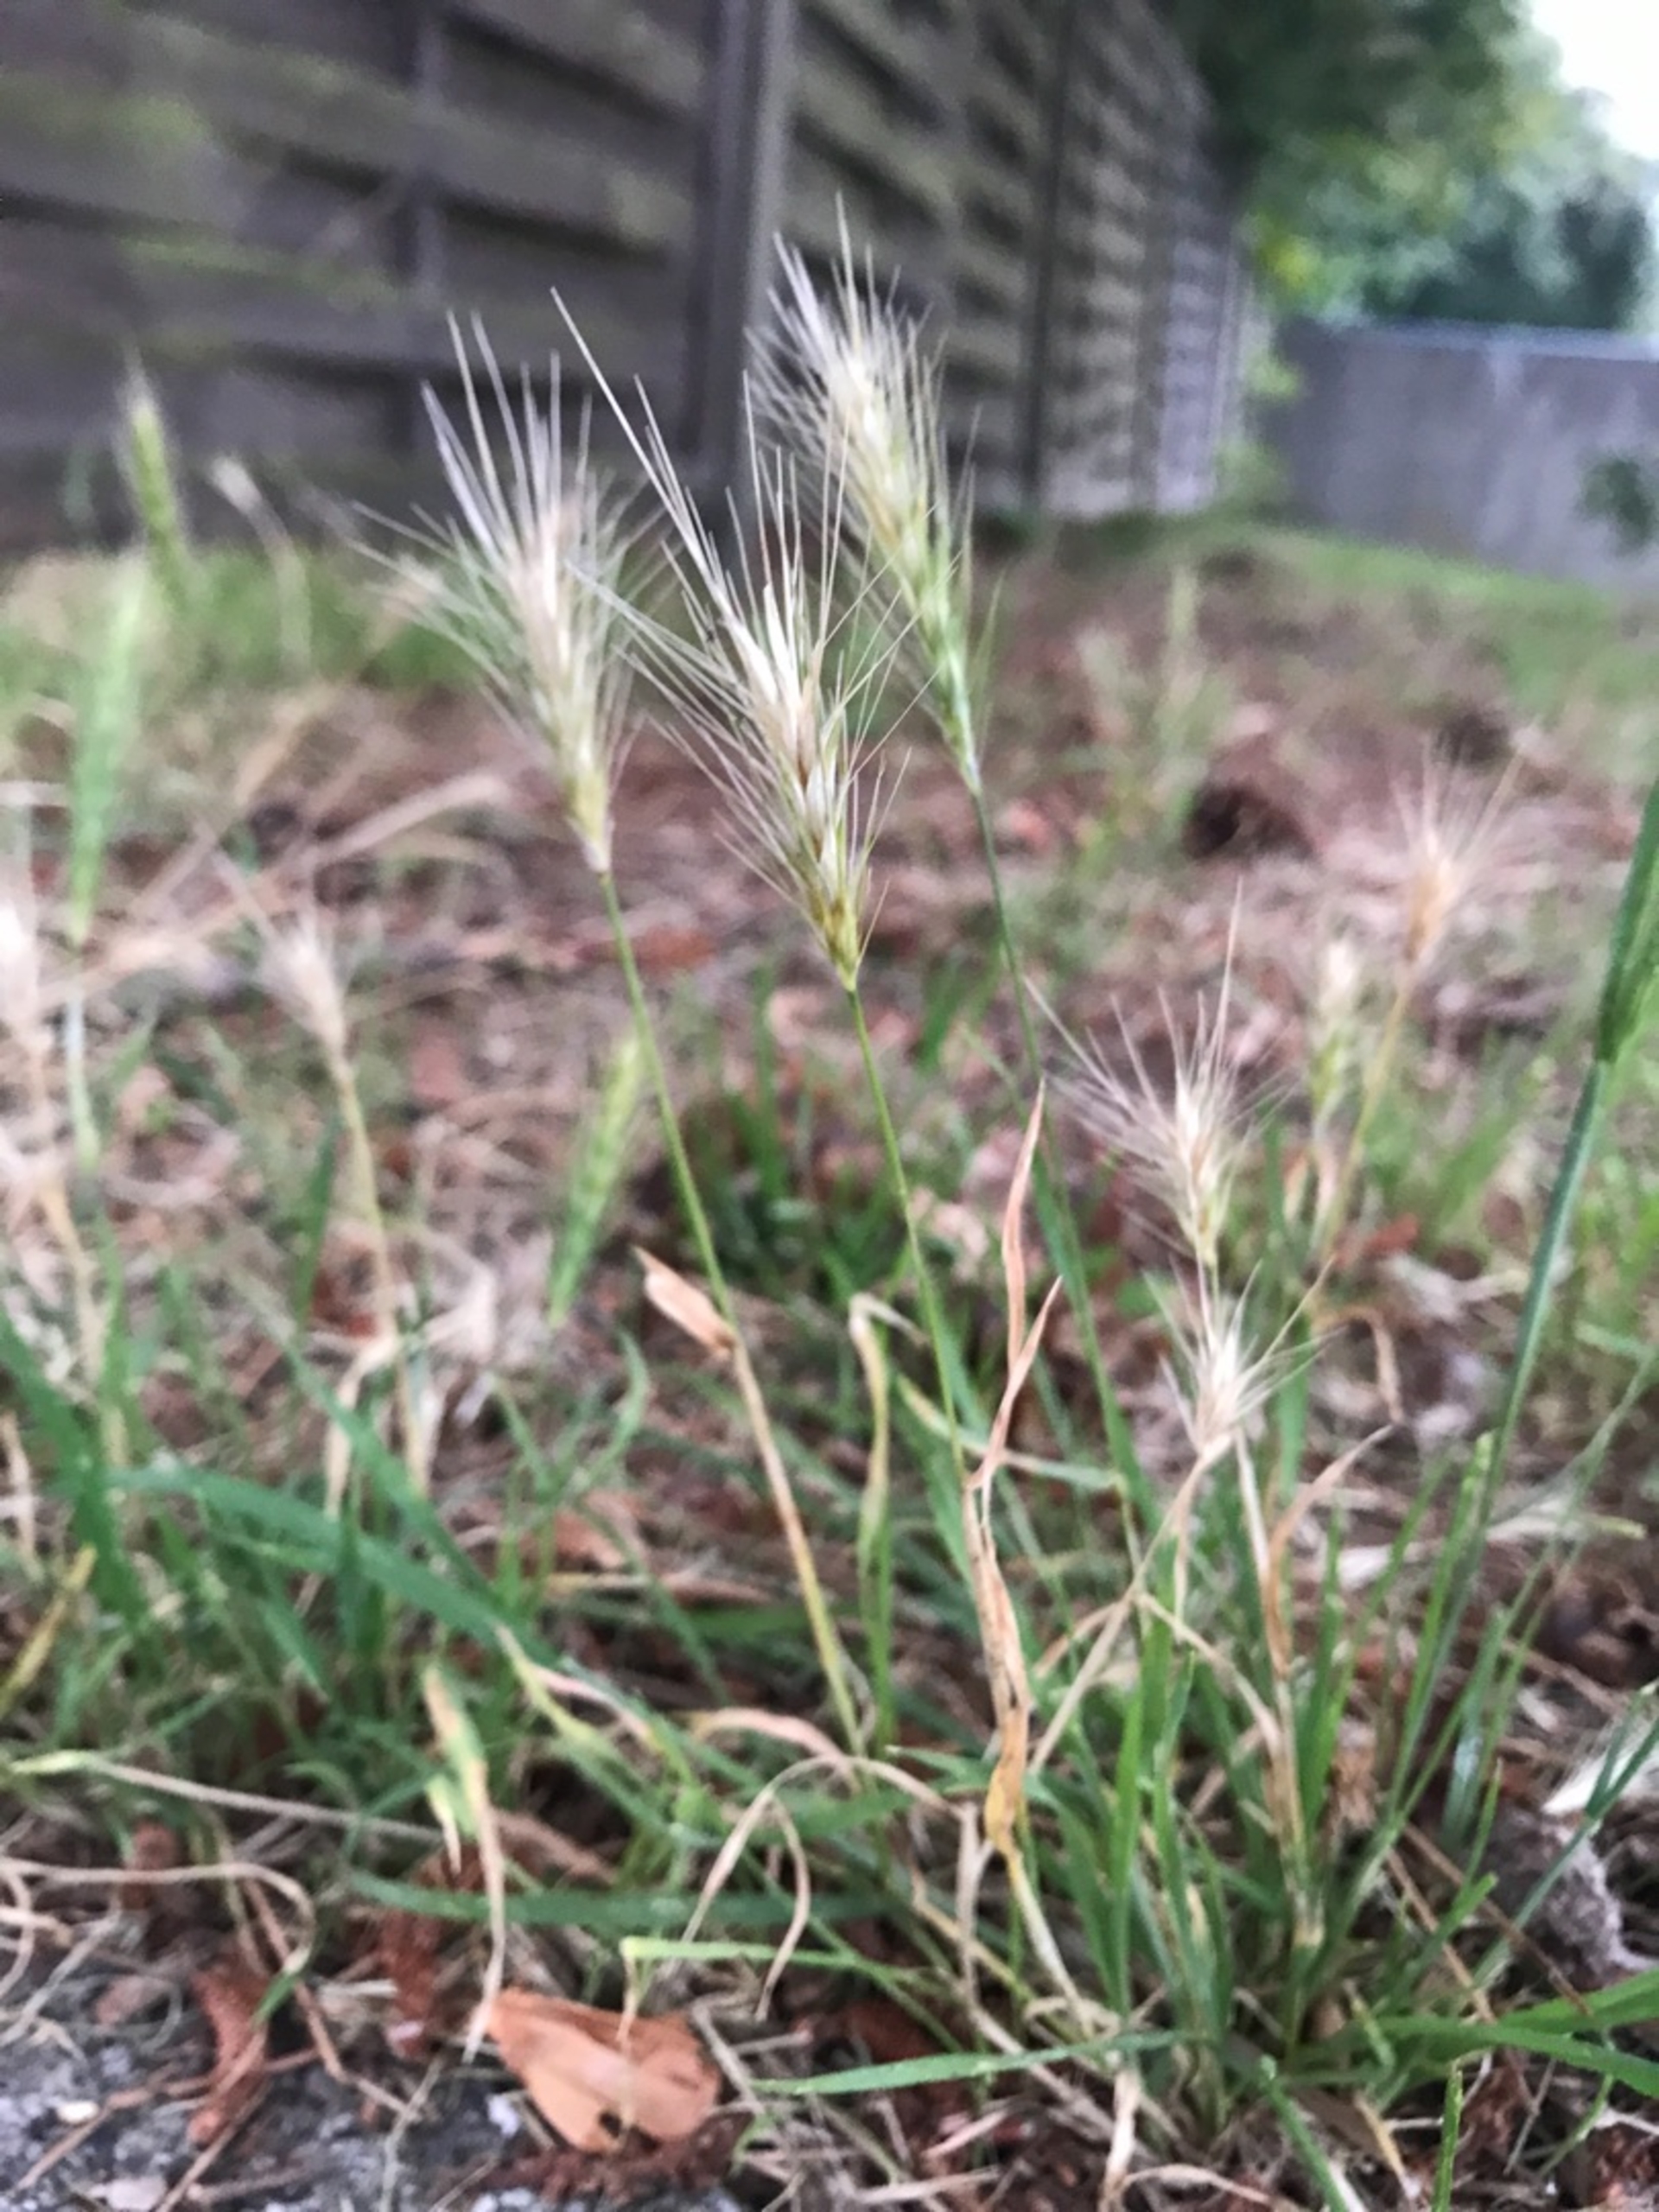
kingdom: Plantae
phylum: Tracheophyta
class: Liliopsida
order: Poales
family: Poaceae
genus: Hordeum
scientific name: Hordeum murinum
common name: Gold byg
